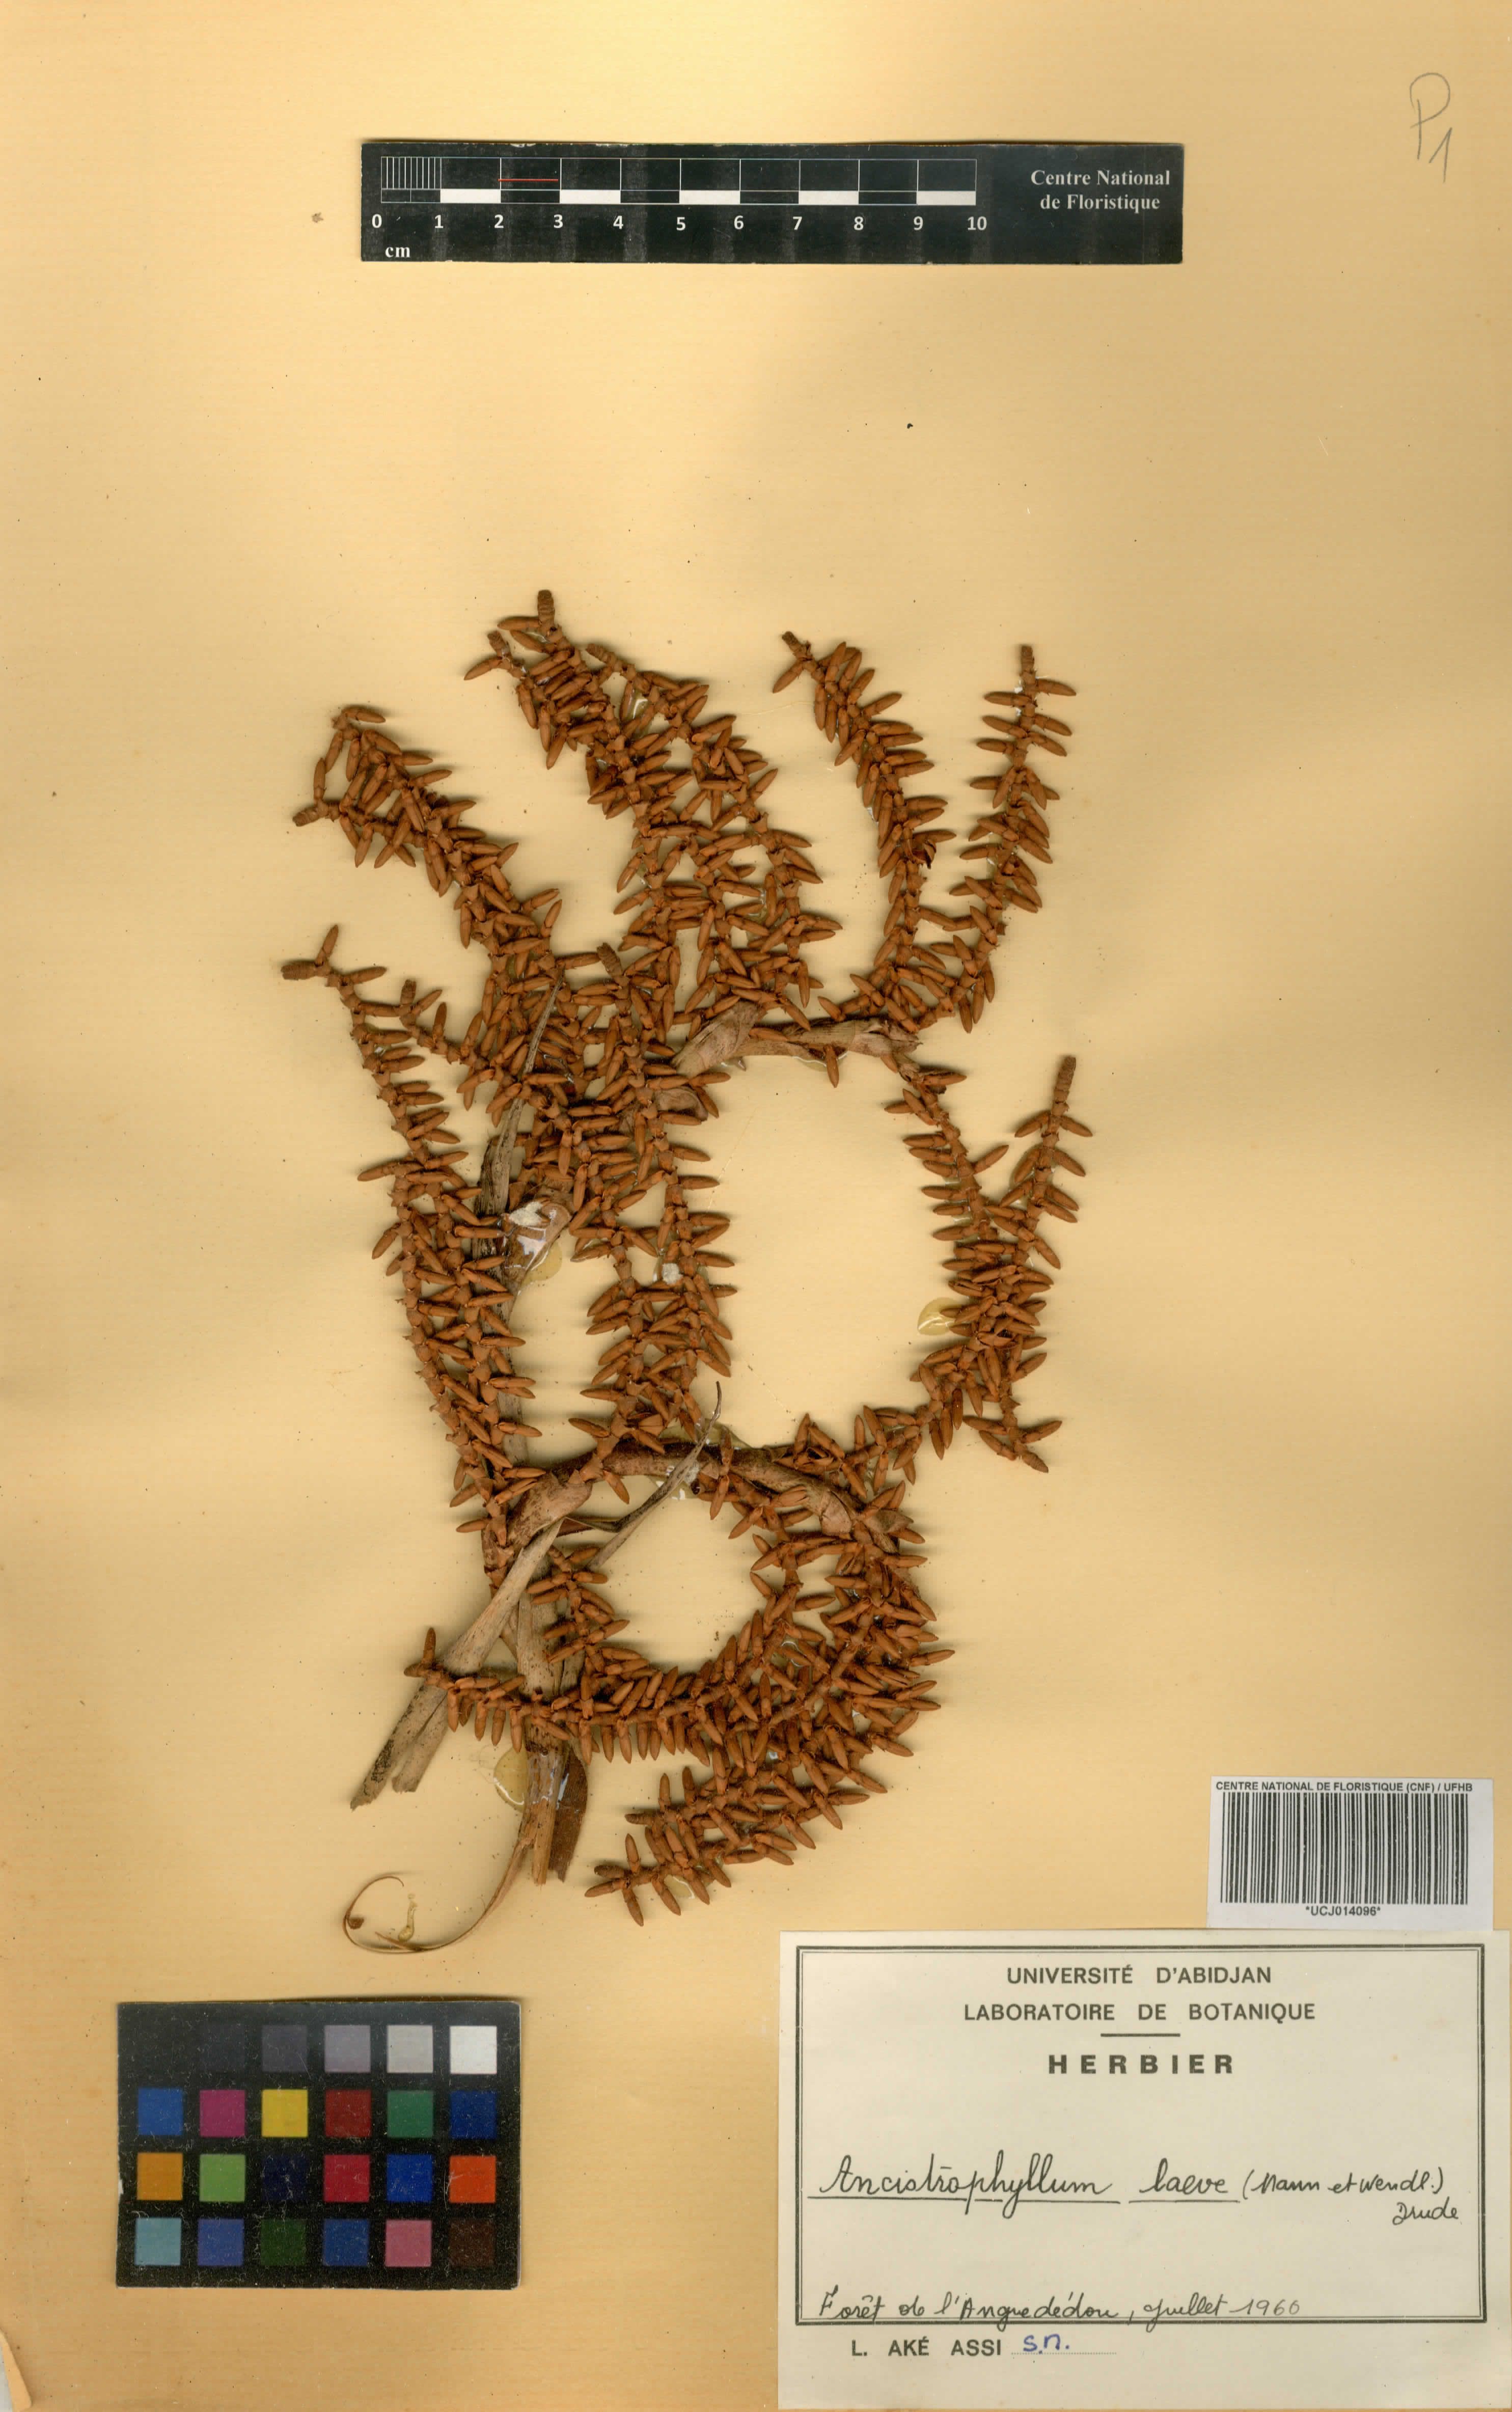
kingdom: Plantae
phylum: Tracheophyta
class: Liliopsida
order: Arecales
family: Arecaceae
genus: Laccosperma
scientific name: Laccosperma Ancistrophyllum laeve
